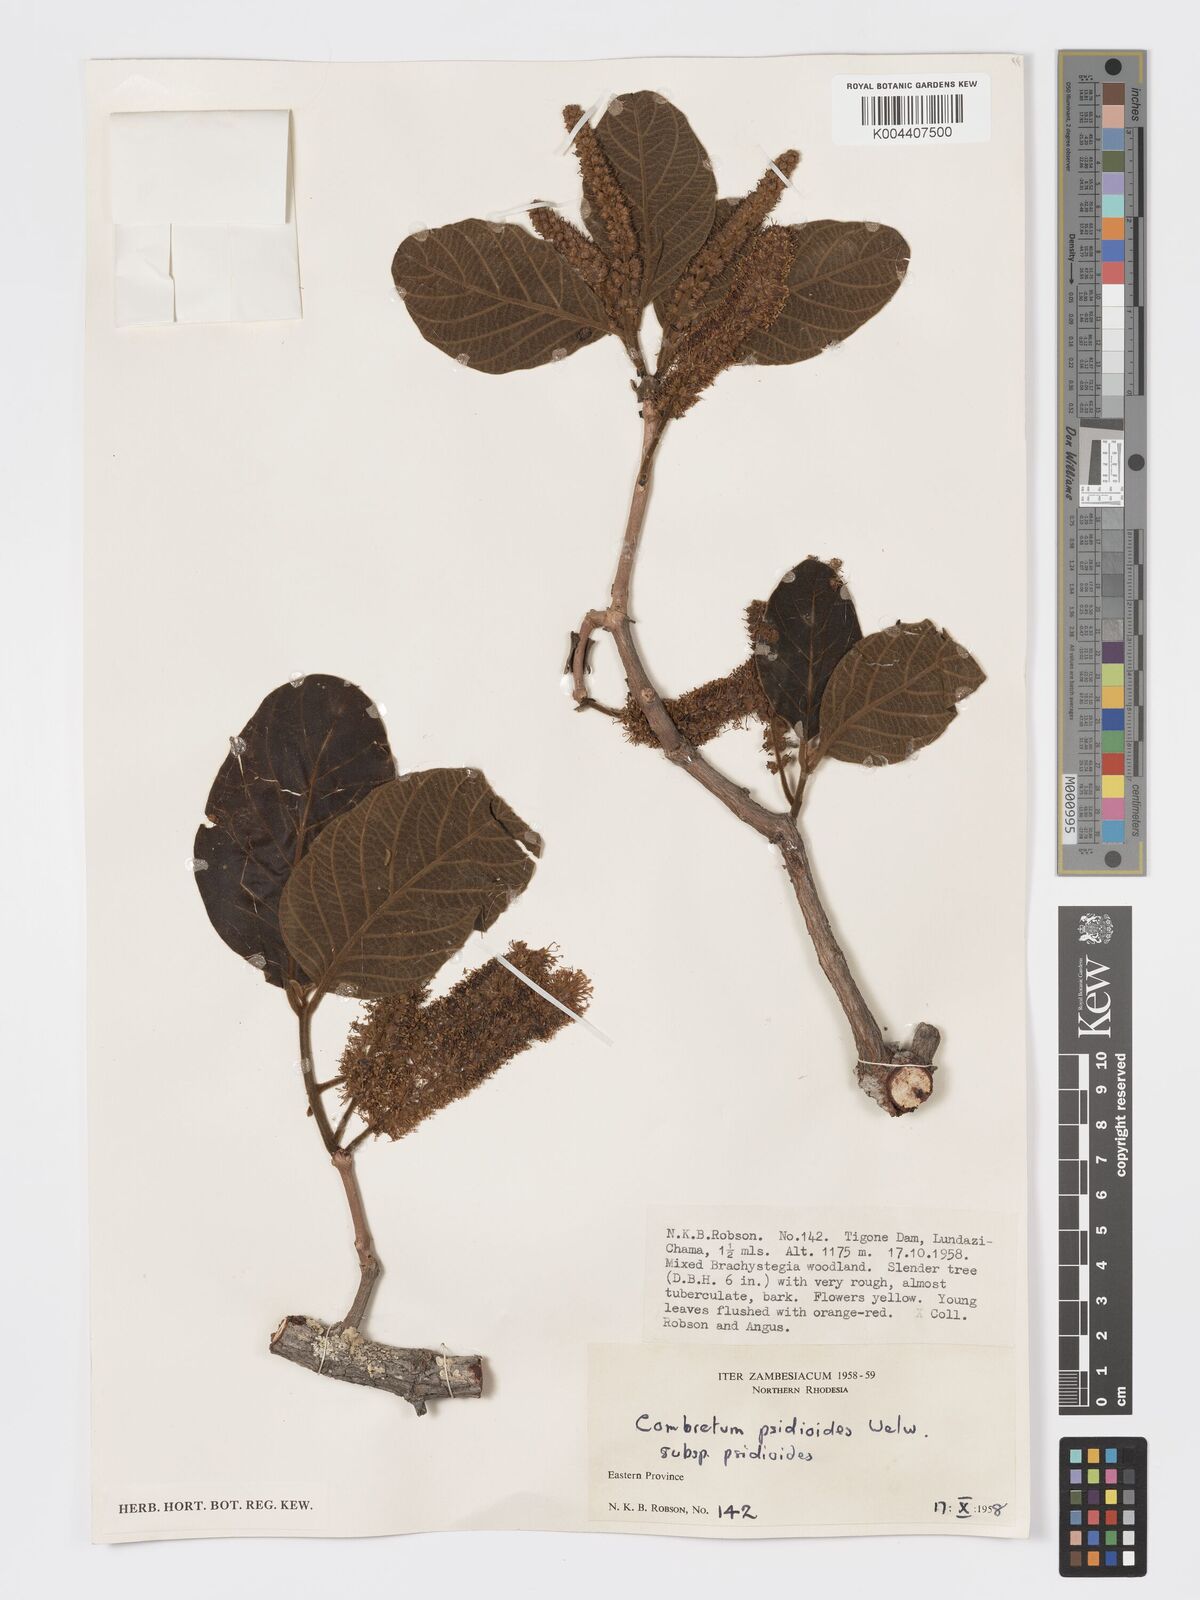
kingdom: Plantae
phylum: Tracheophyta
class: Magnoliopsida
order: Myrtales
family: Combretaceae
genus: Combretum
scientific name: Combretum psidioides
